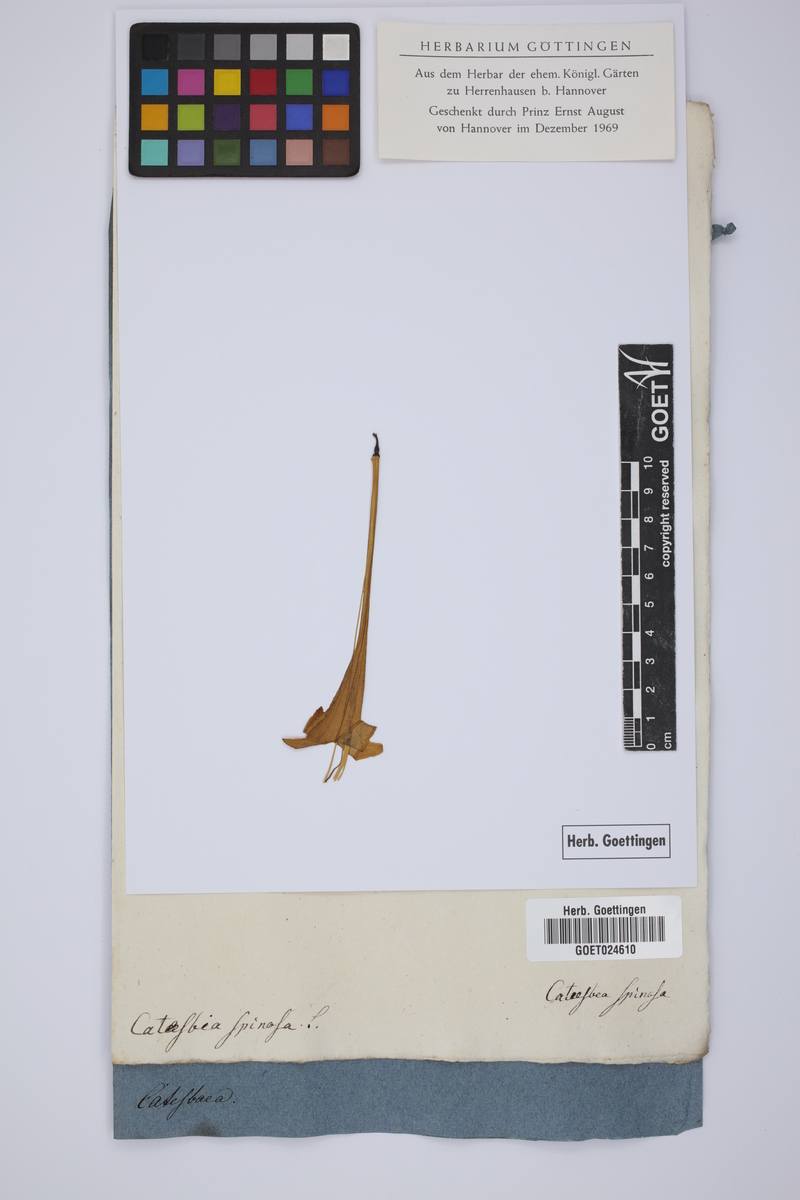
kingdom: Plantae
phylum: Tracheophyta
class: Magnoliopsida
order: Gentianales
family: Rubiaceae
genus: Catesbaea
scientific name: Catesbaea spinosa
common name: Spanish-guava
